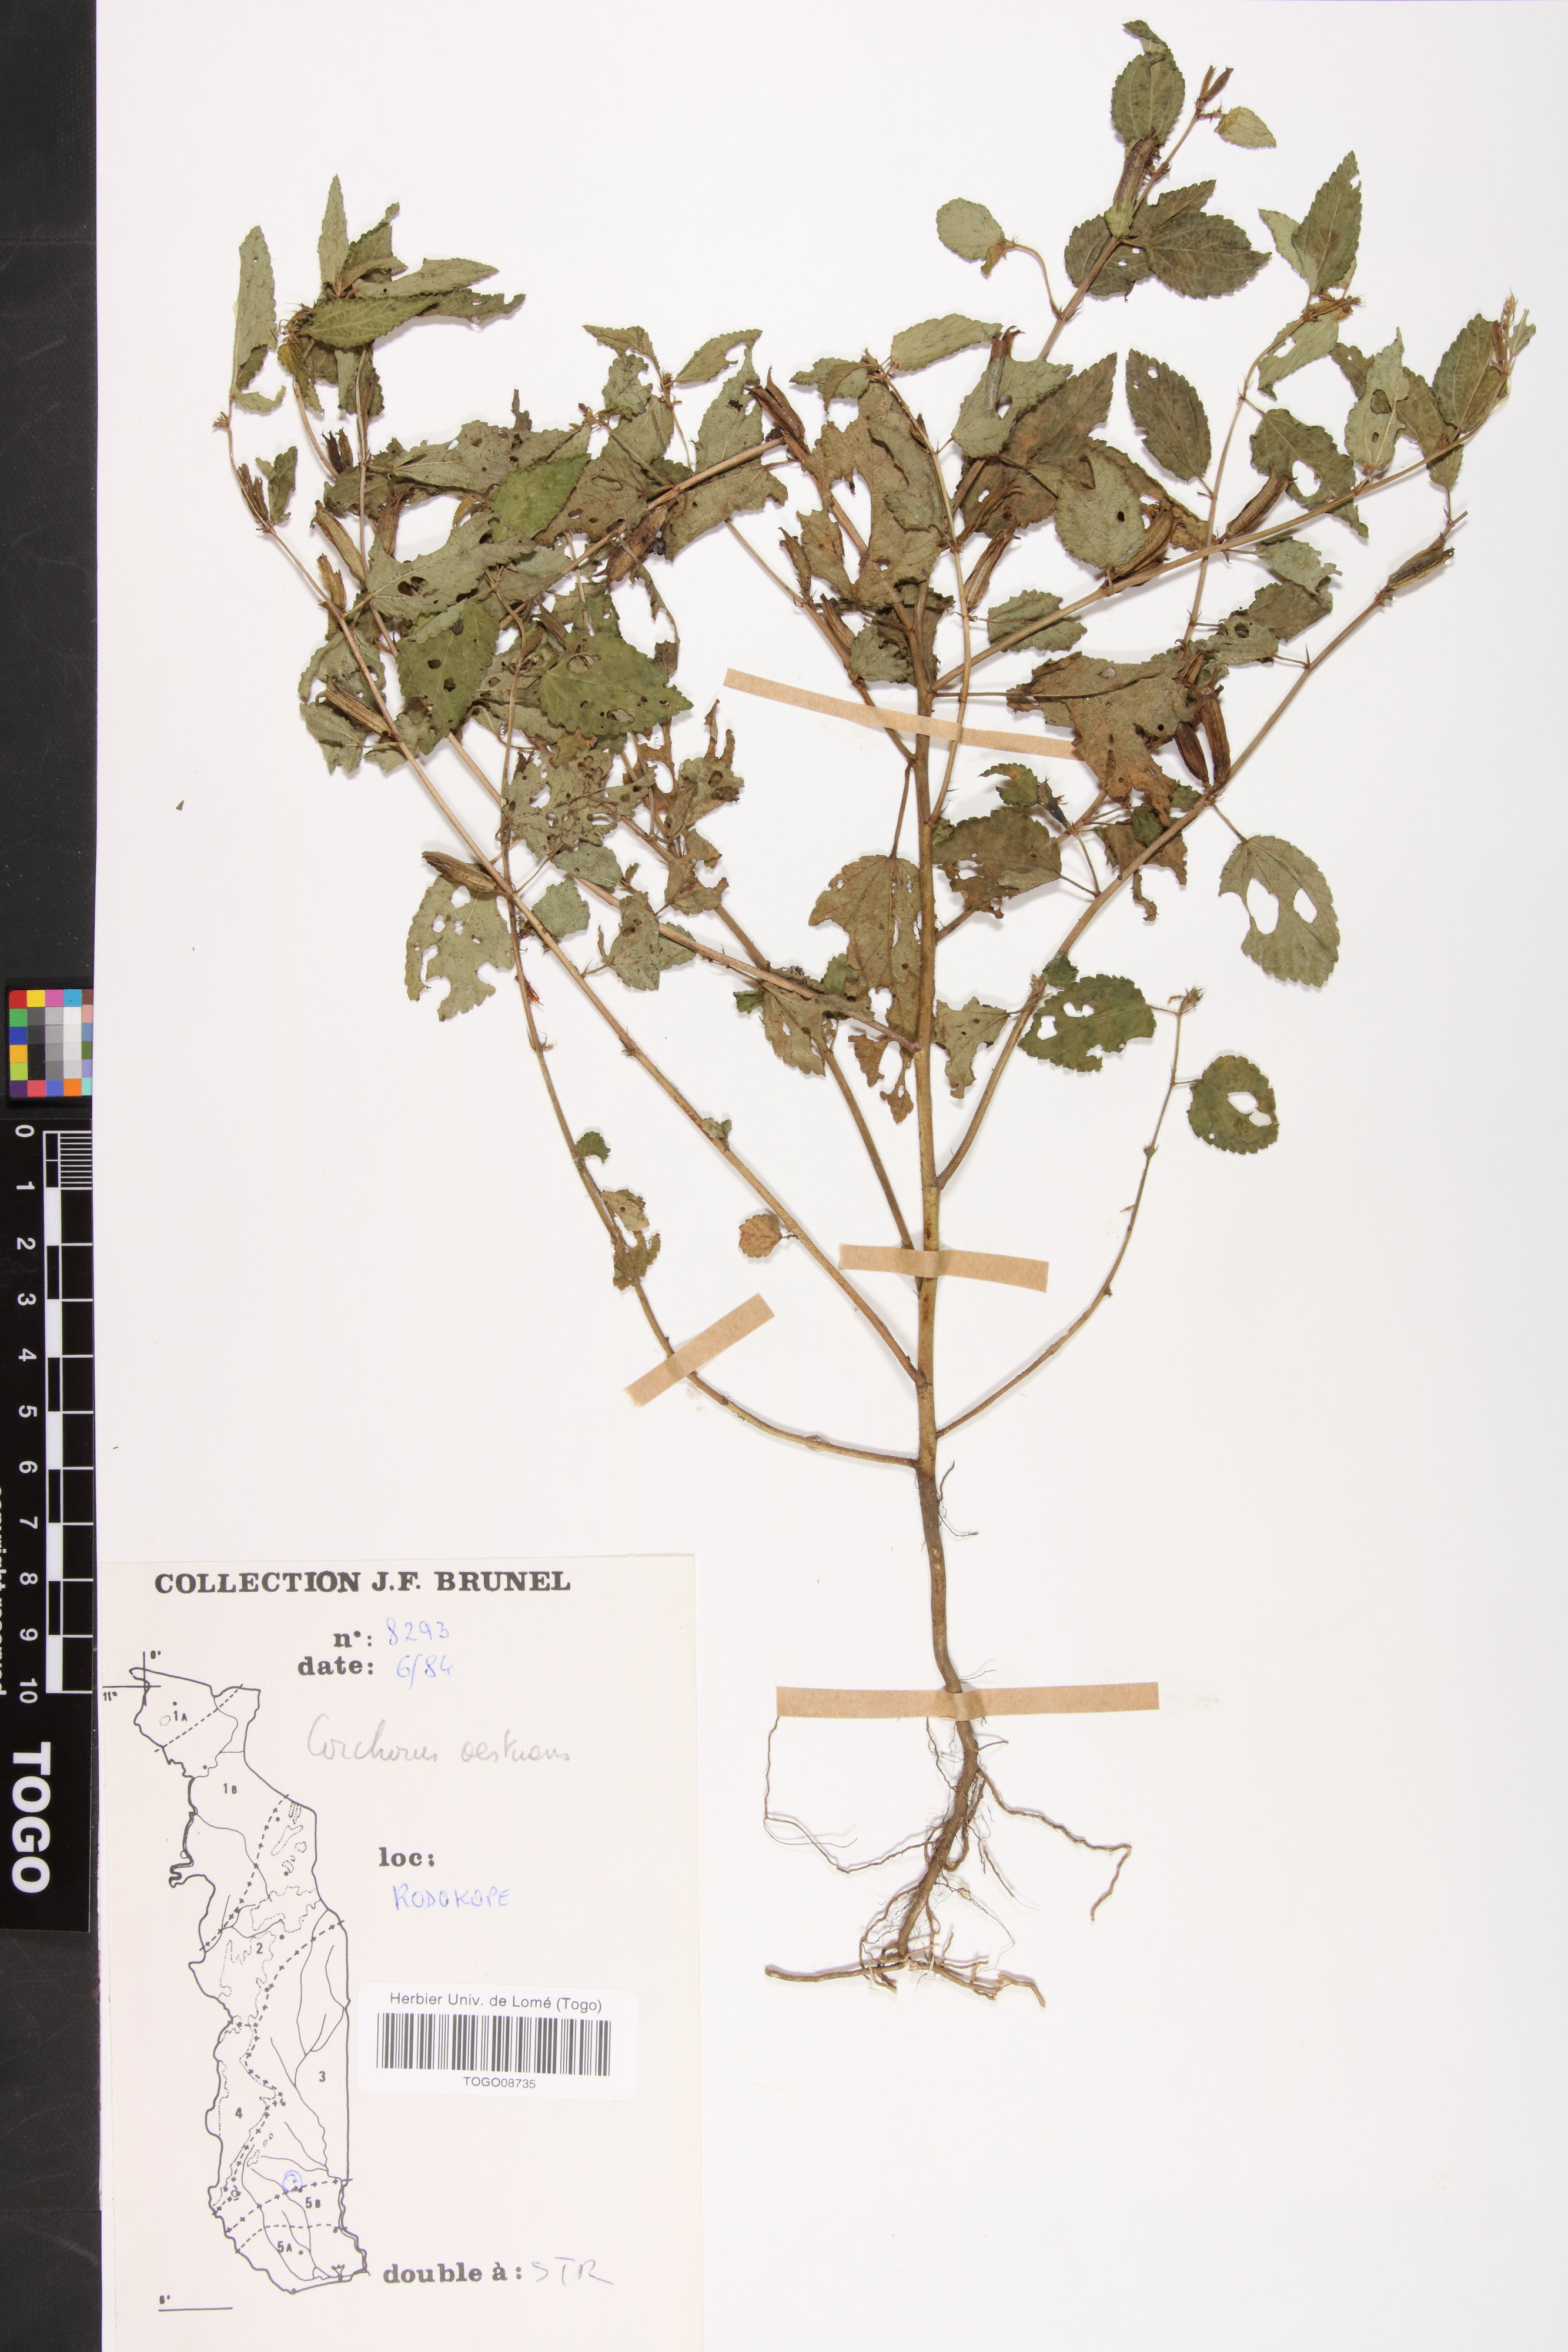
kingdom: Plantae
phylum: Tracheophyta
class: Magnoliopsida
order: Malvales
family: Malvaceae
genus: Corchorus
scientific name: Corchorus aestuans
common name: Jute
